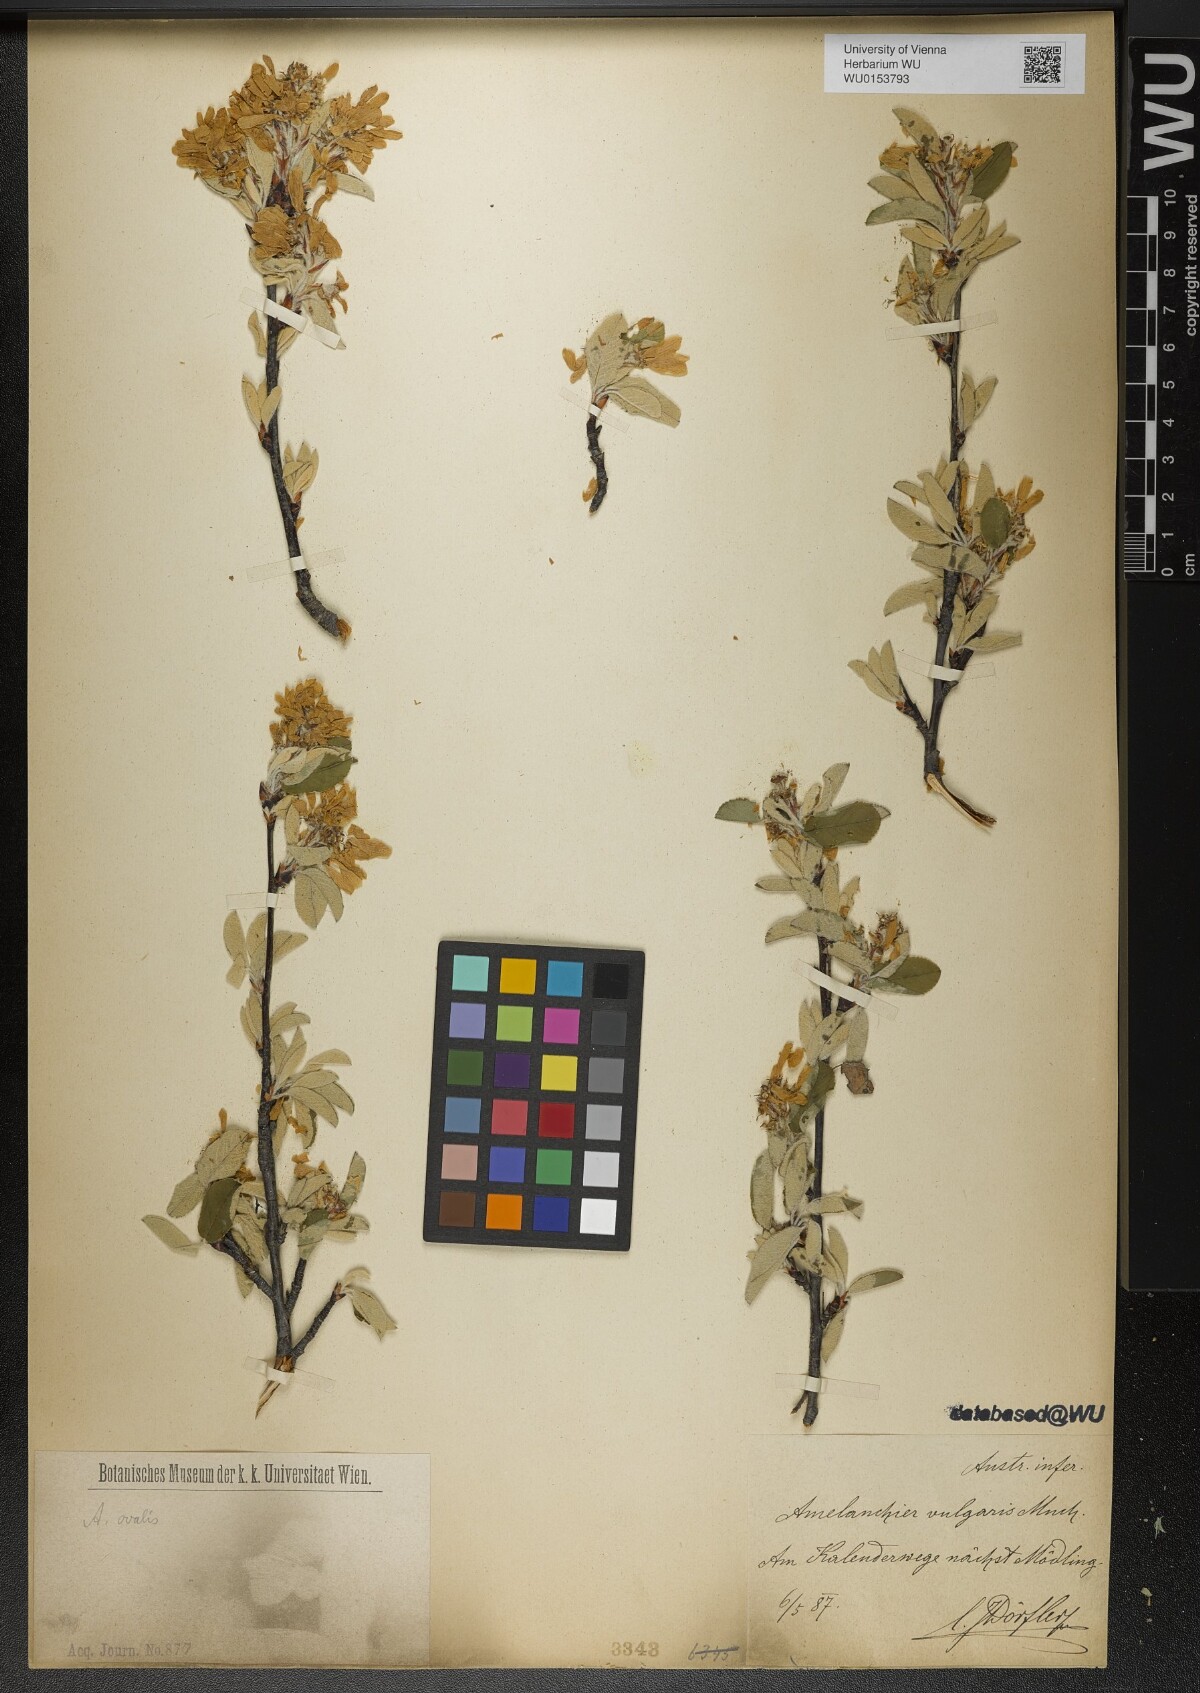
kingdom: Plantae
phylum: Tracheophyta
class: Magnoliopsida
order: Rosales
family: Rosaceae
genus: Amelanchier
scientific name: Amelanchier ovalis
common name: Serviceberry
